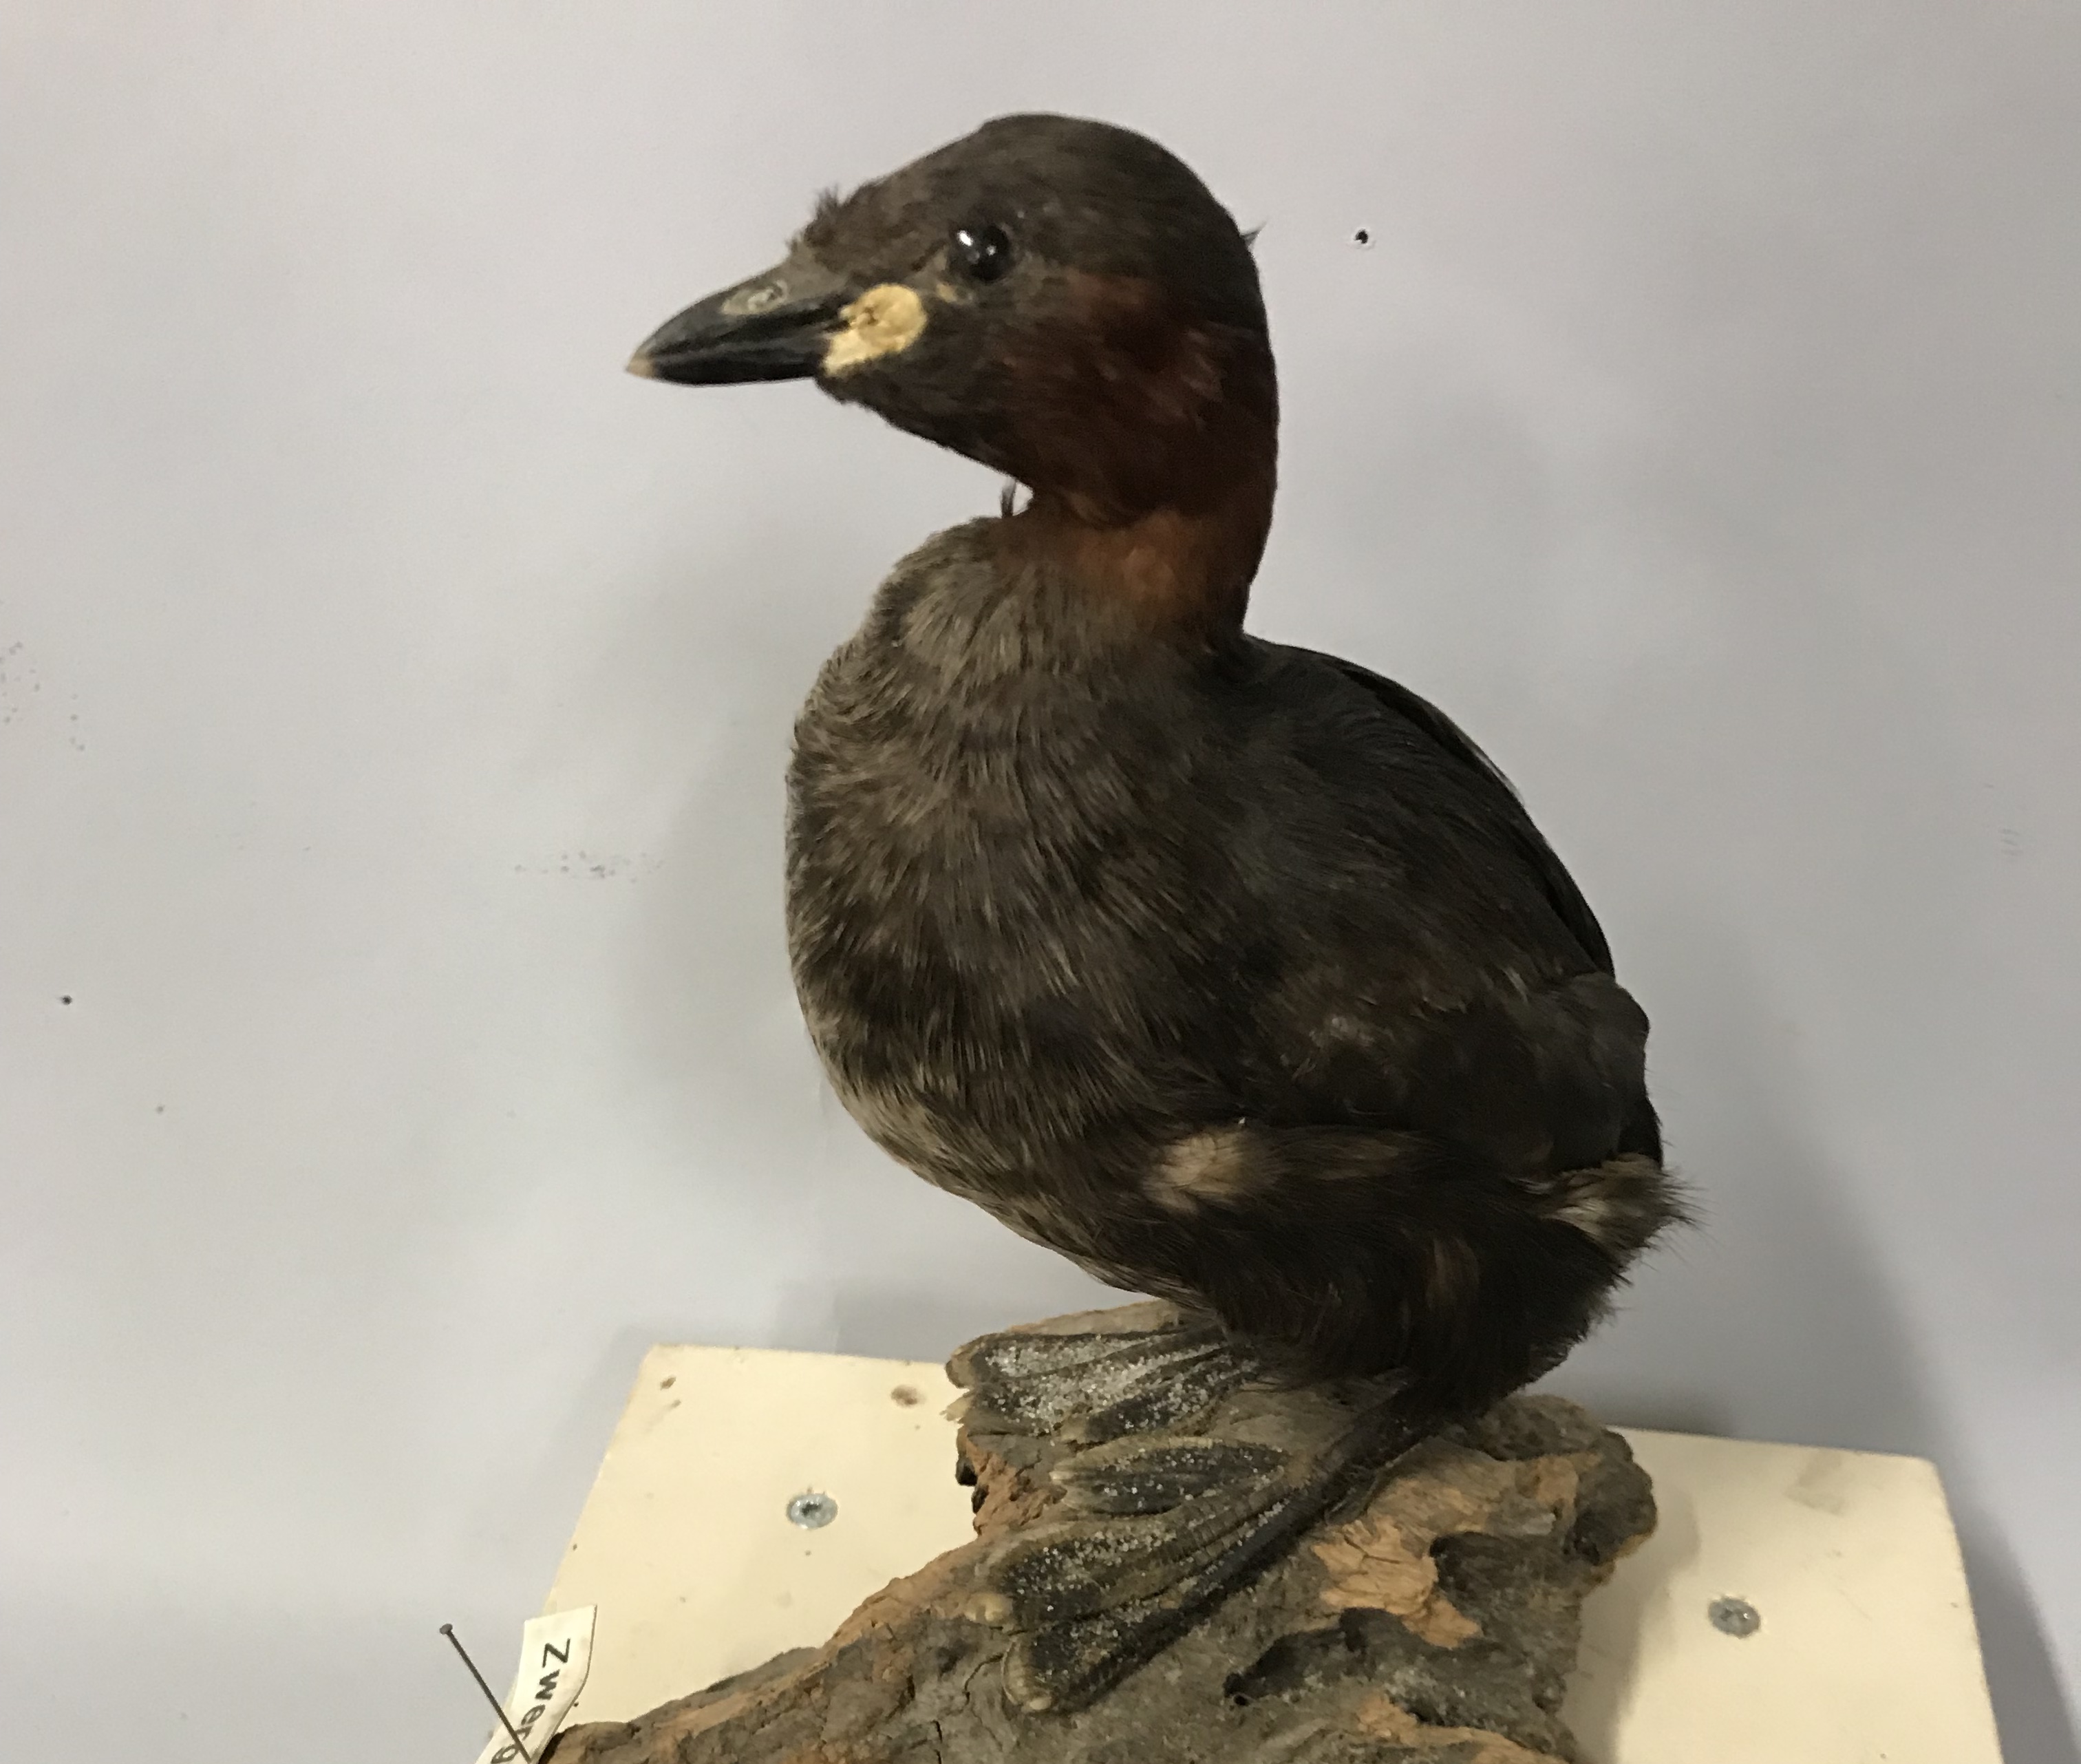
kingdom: Animalia
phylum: Chordata
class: Aves
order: Podicipediformes
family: Podicipedidae
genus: Tachybaptus
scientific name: Tachybaptus ruficollis
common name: Little grebe
